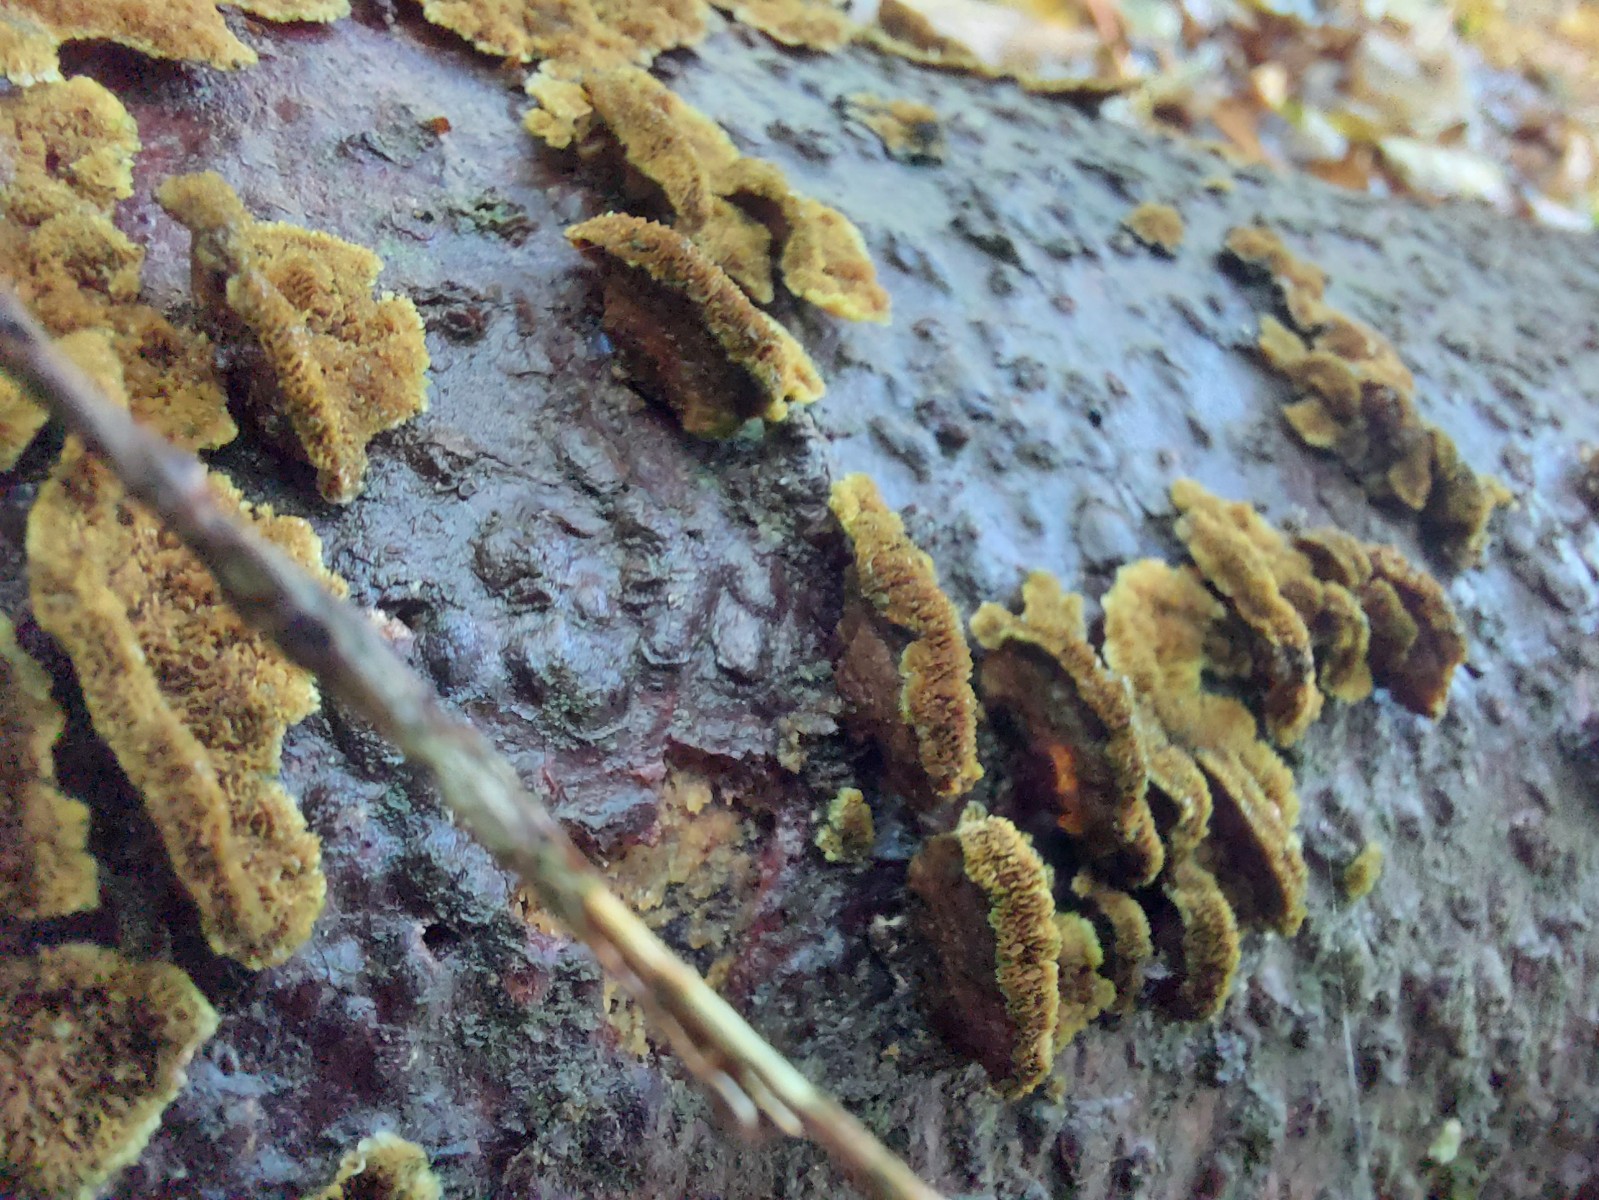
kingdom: Fungi
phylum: Basidiomycota
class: Agaricomycetes
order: Polyporales
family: Polyporaceae
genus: Trichaptum
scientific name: Trichaptum
